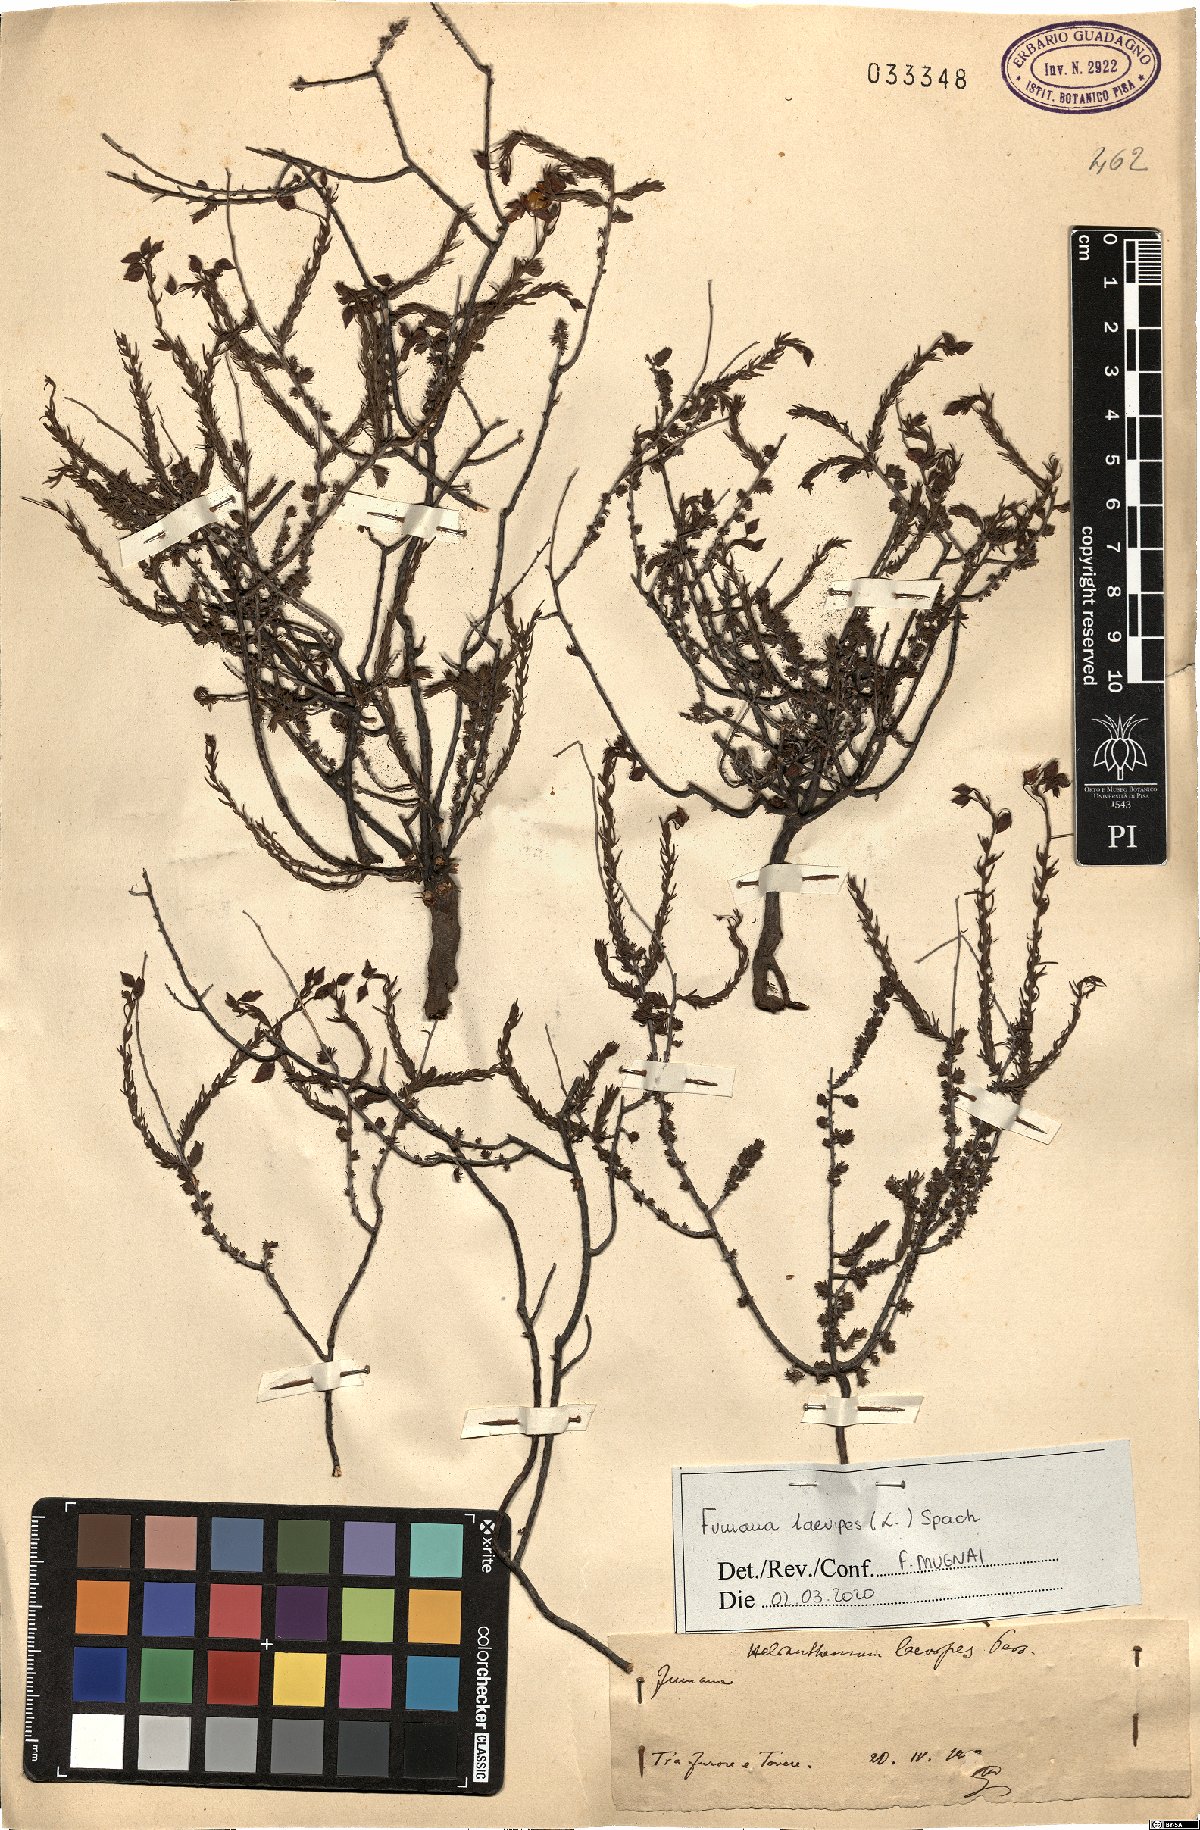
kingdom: Plantae
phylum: Tracheophyta
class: Magnoliopsida
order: Malvales
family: Cistaceae
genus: Fumana
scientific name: Fumana laevipes
